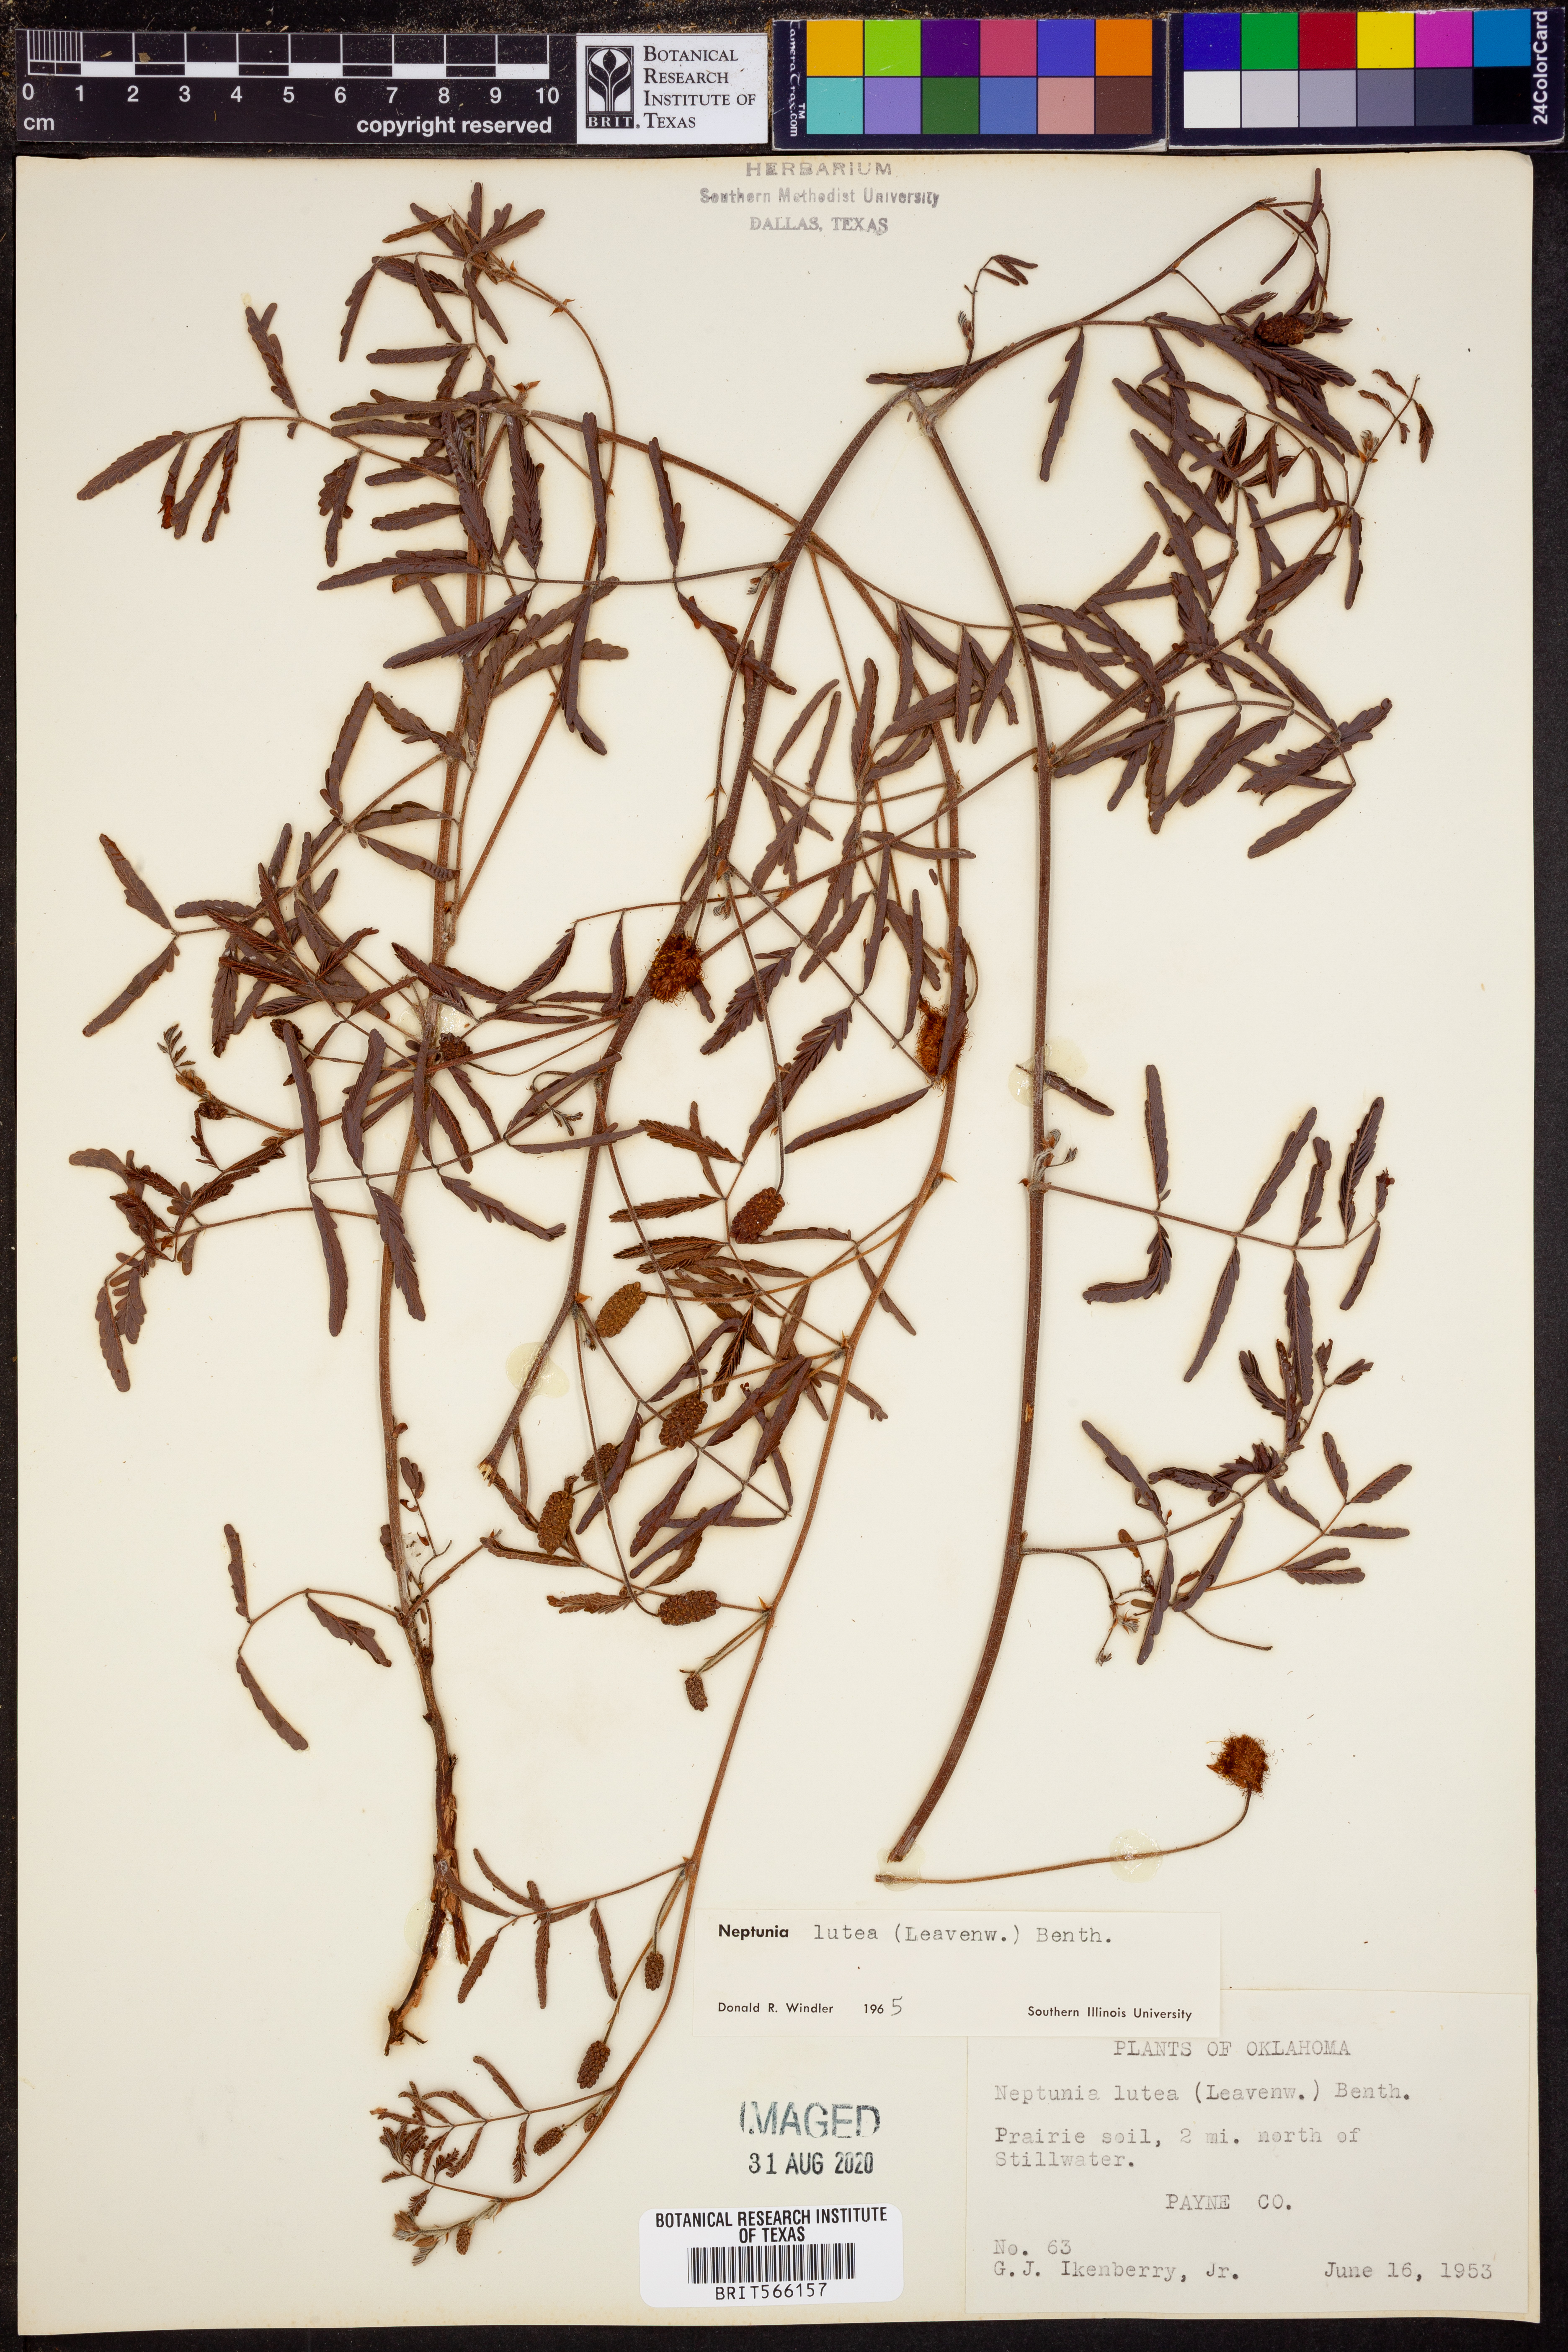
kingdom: Plantae
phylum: Tracheophyta
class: Magnoliopsida
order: Fabales
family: Fabaceae
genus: Neptunia
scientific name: Neptunia lutea
